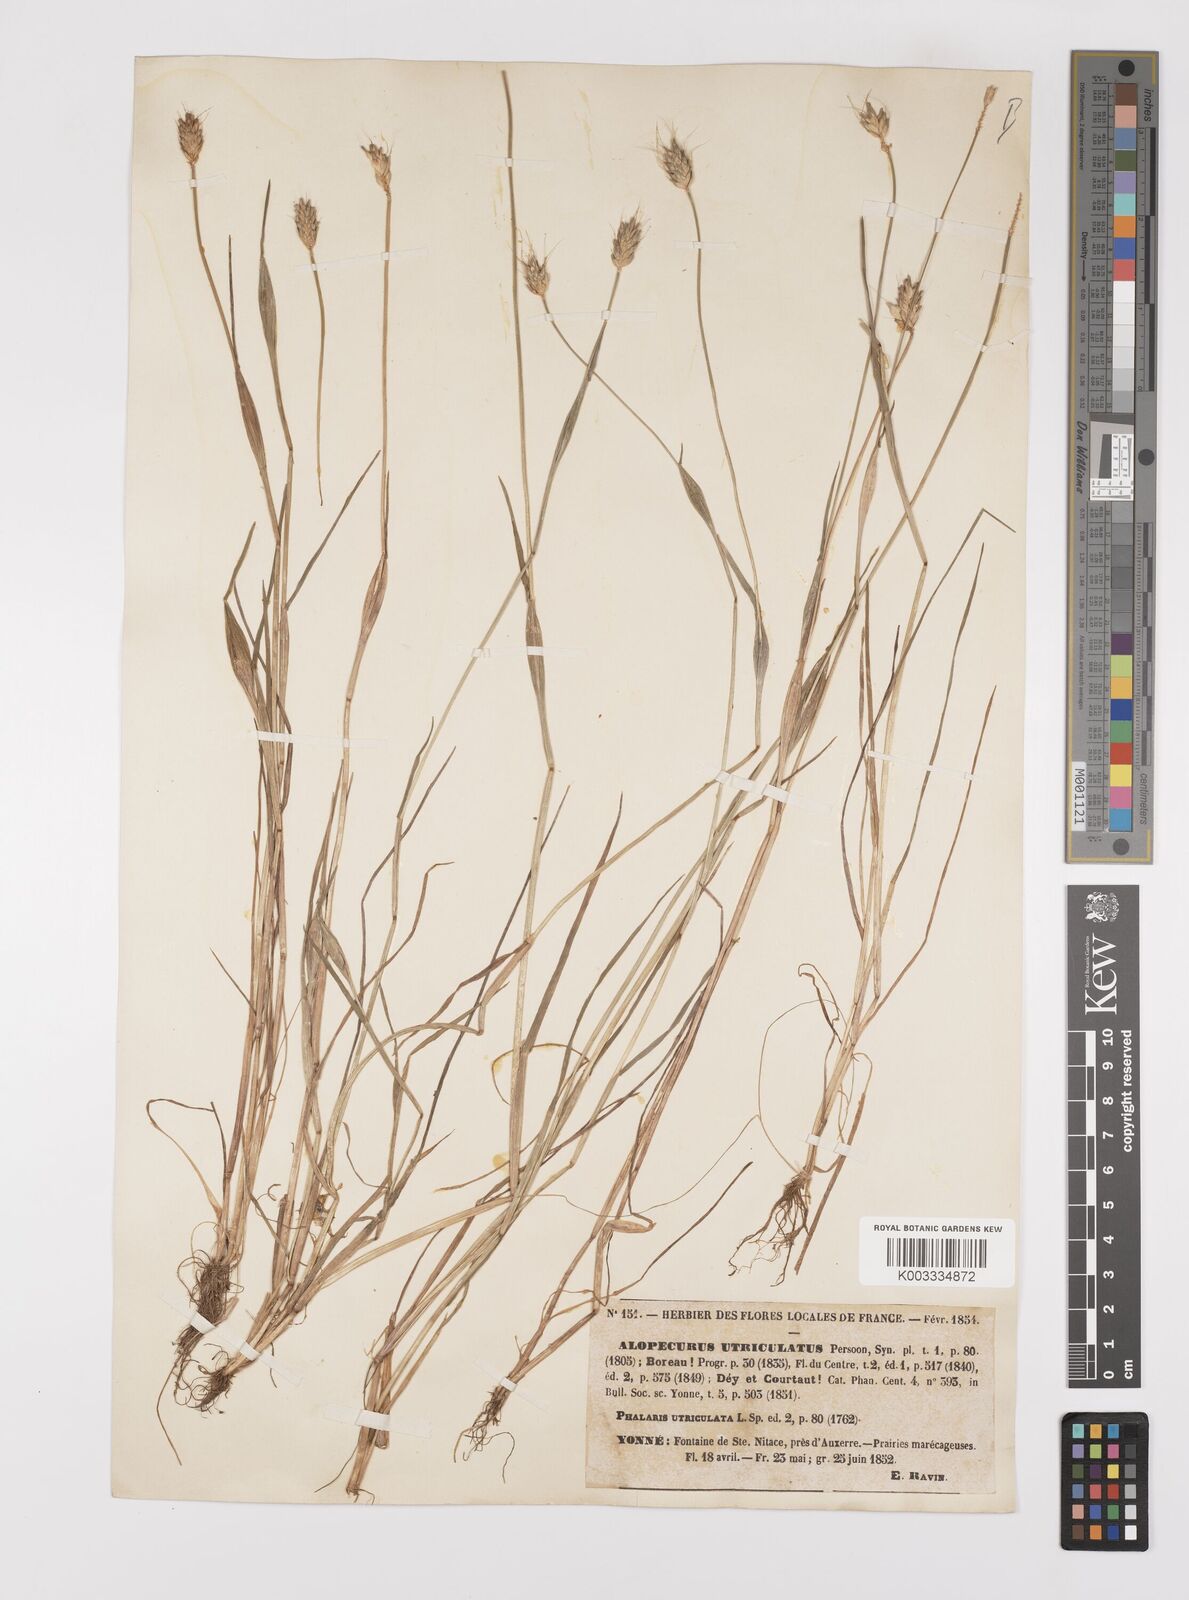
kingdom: Plantae
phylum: Tracheophyta
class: Liliopsida
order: Poales
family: Poaceae
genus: Alopecurus
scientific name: Alopecurus rendlei
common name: Rendle's meadow foxtail
